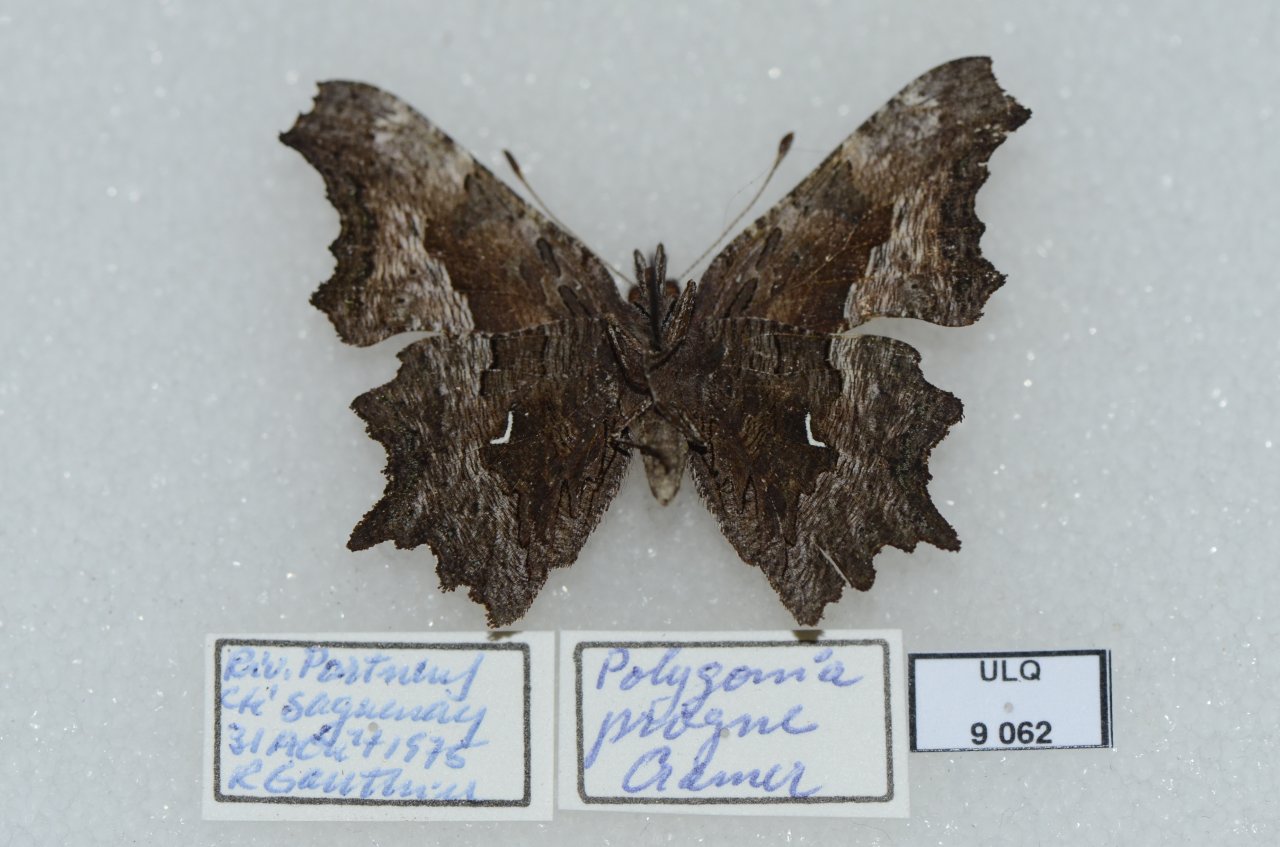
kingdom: Animalia
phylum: Arthropoda
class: Insecta
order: Lepidoptera
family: Nymphalidae
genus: Polygonia
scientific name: Polygonia progne
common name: Gray Comma
